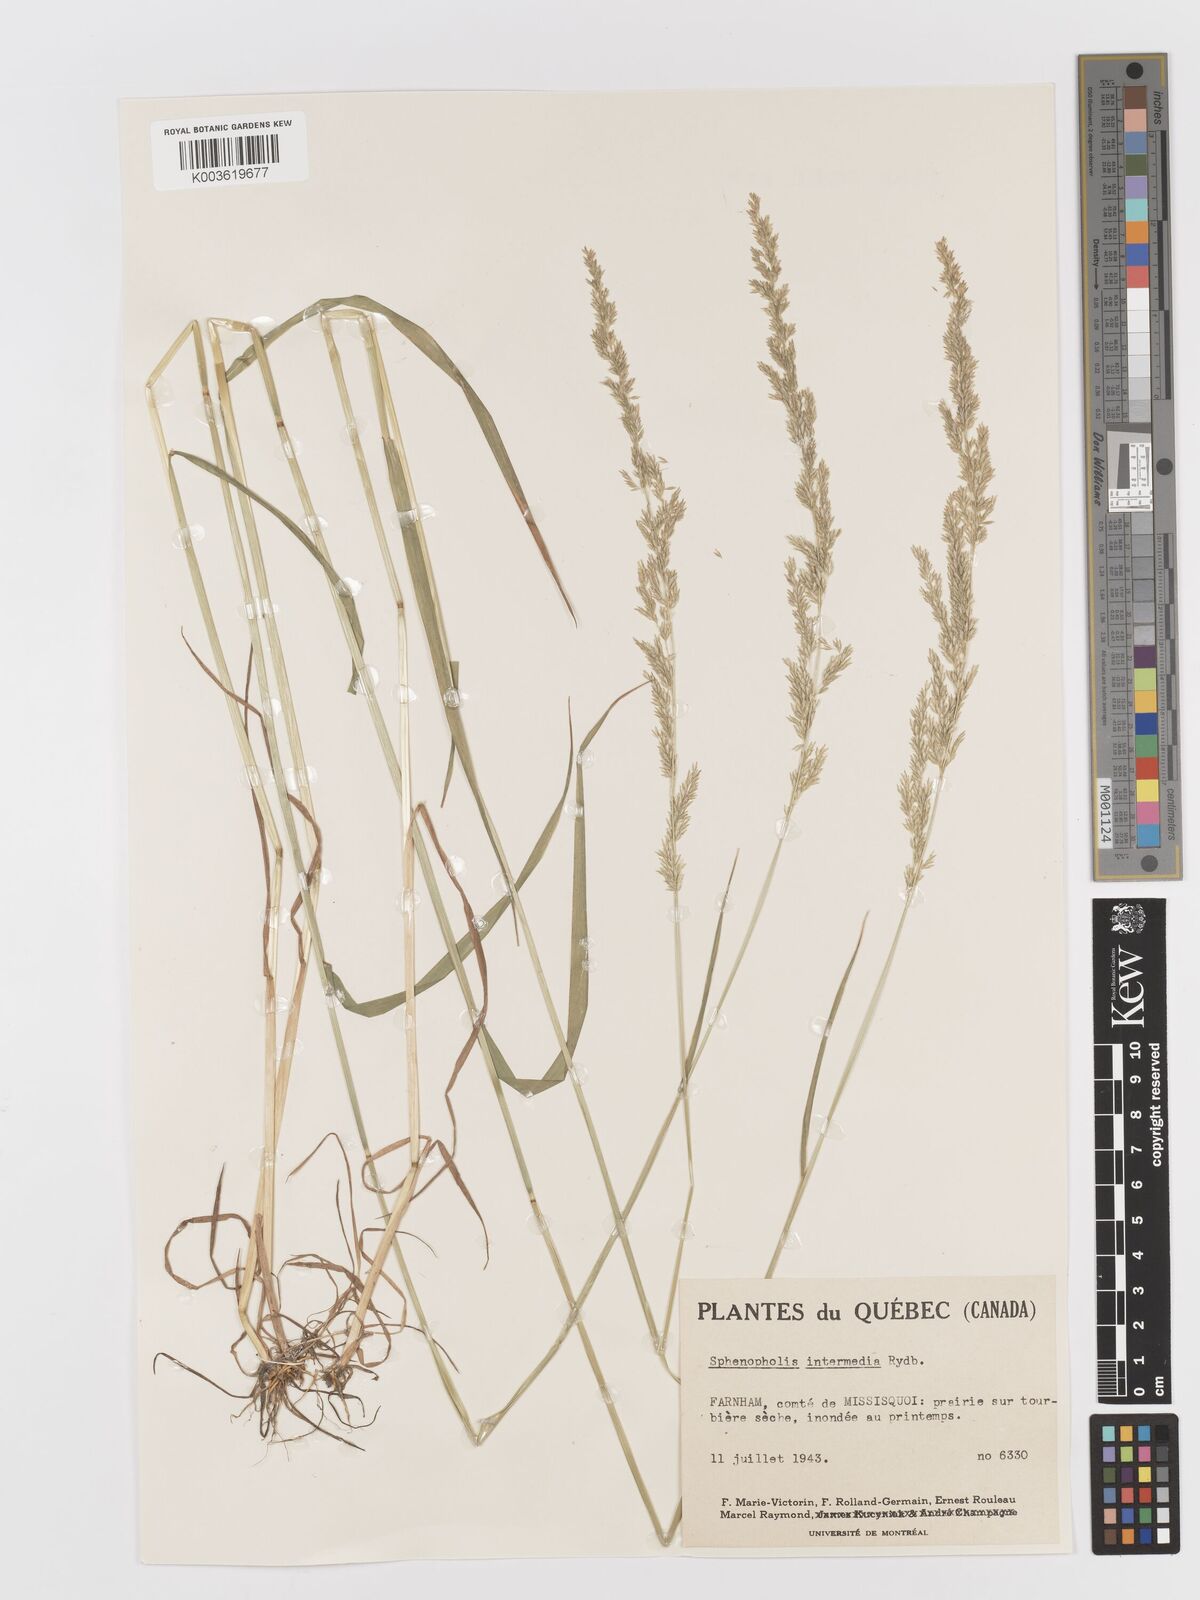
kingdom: Plantae
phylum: Tracheophyta
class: Liliopsida
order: Poales
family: Poaceae
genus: Sphenopholis
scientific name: Sphenopholis obtusata
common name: Prairie grass
